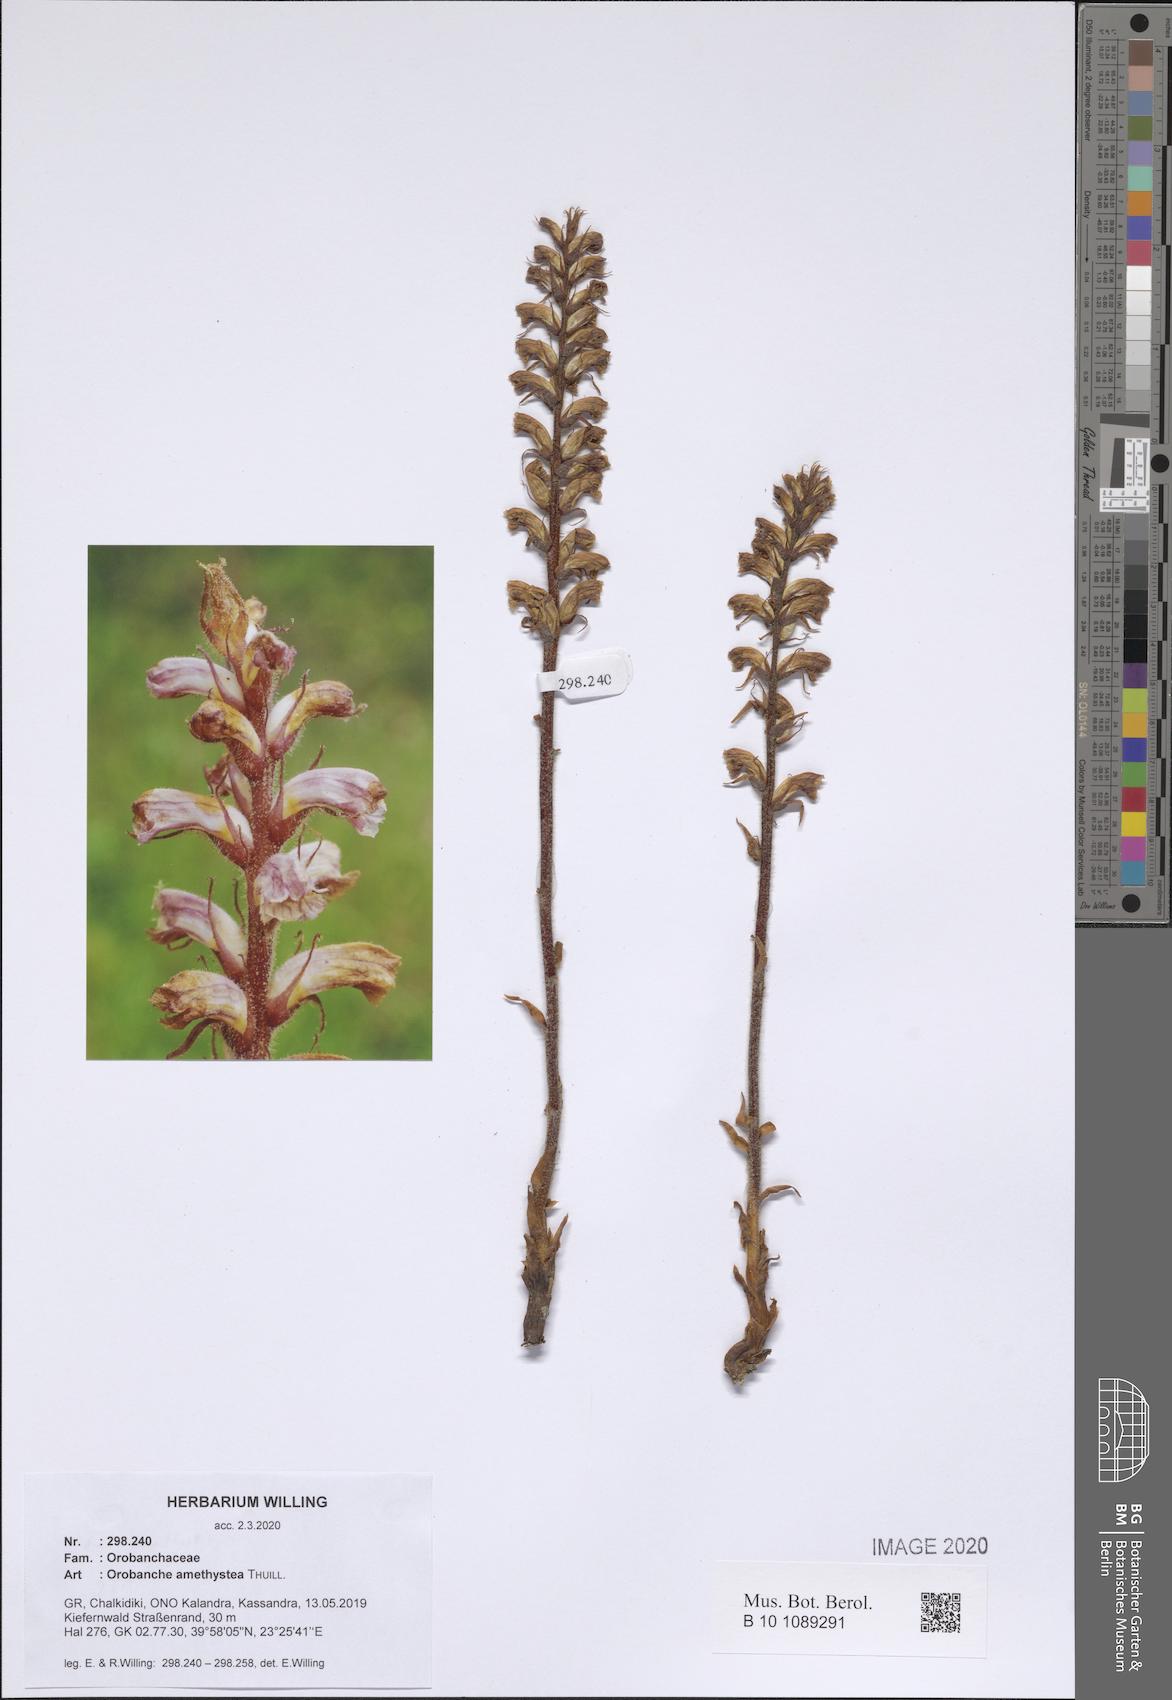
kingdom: Plantae
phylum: Tracheophyta
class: Magnoliopsida
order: Lamiales
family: Orobanchaceae
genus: Orobanche
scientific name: Orobanche amethystea
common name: Amethyst broomrape
